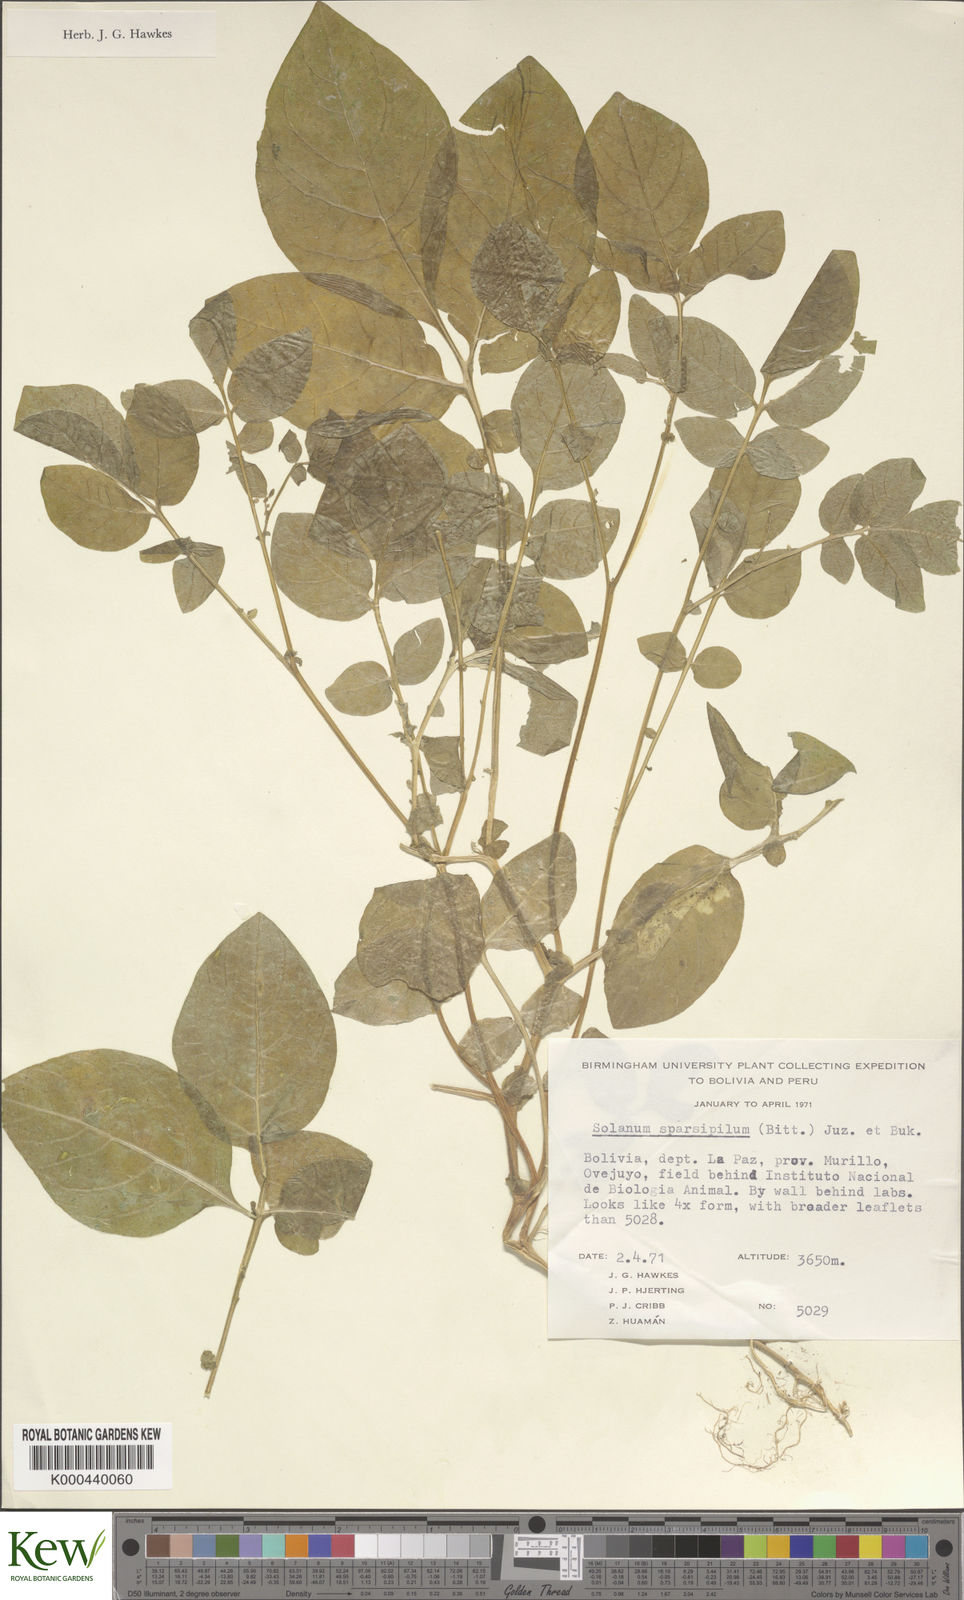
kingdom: Plantae
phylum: Tracheophyta
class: Magnoliopsida
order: Solanales
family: Solanaceae
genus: Solanum
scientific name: Solanum brevicaule
